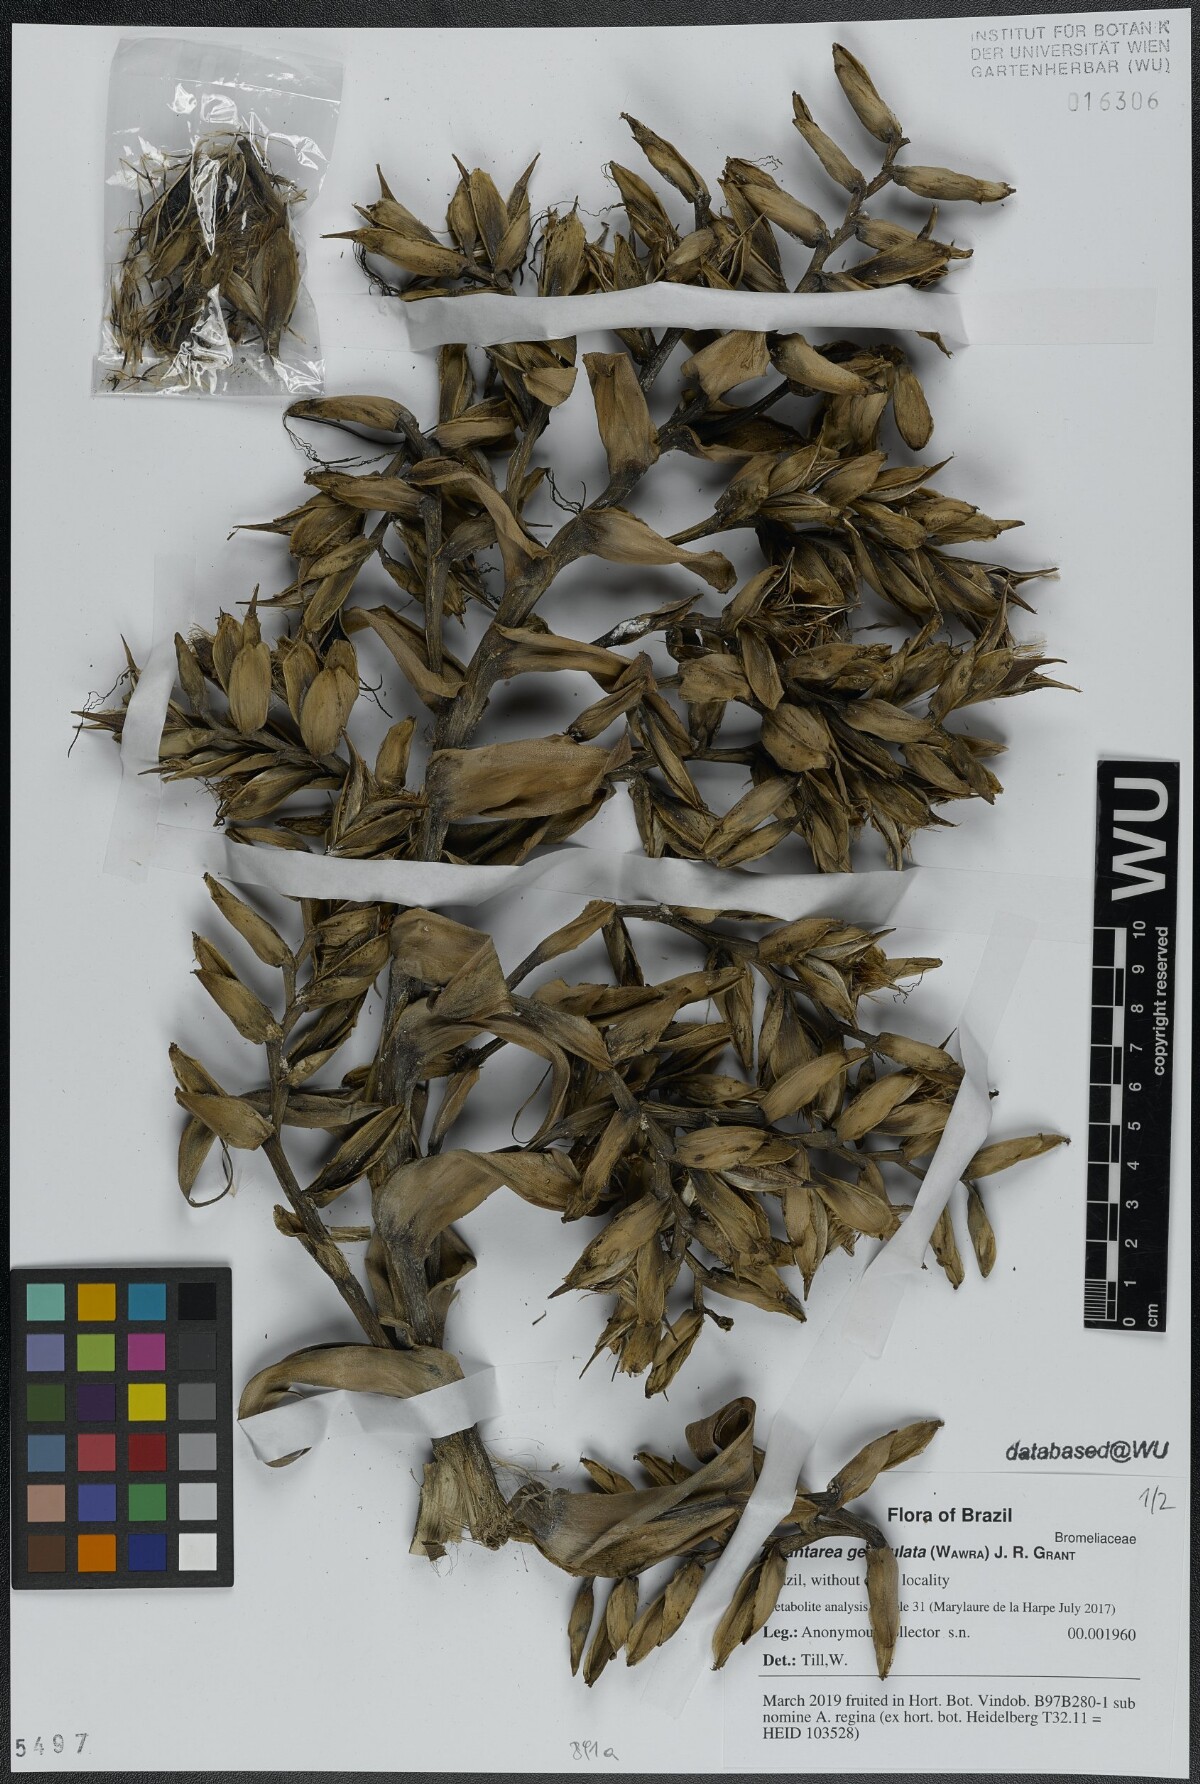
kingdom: Plantae
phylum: Tracheophyta
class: Liliopsida
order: Poales
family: Bromeliaceae
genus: Alcantarea
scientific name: Alcantarea geniculata
